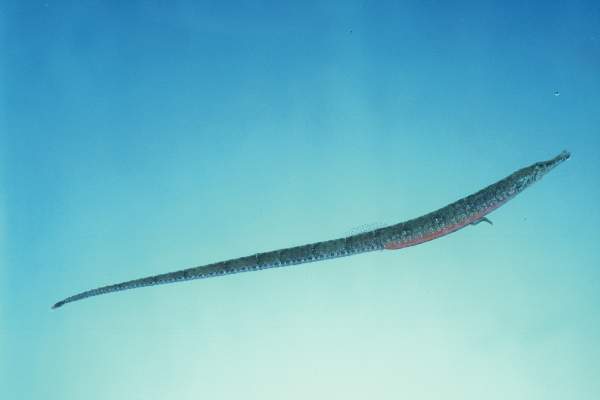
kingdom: Animalia
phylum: Chordata
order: Syngnathiformes
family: Syngnathidae
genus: Hippichthys
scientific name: Hippichthys cyanospilos
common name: Blue-spotted pipefish
